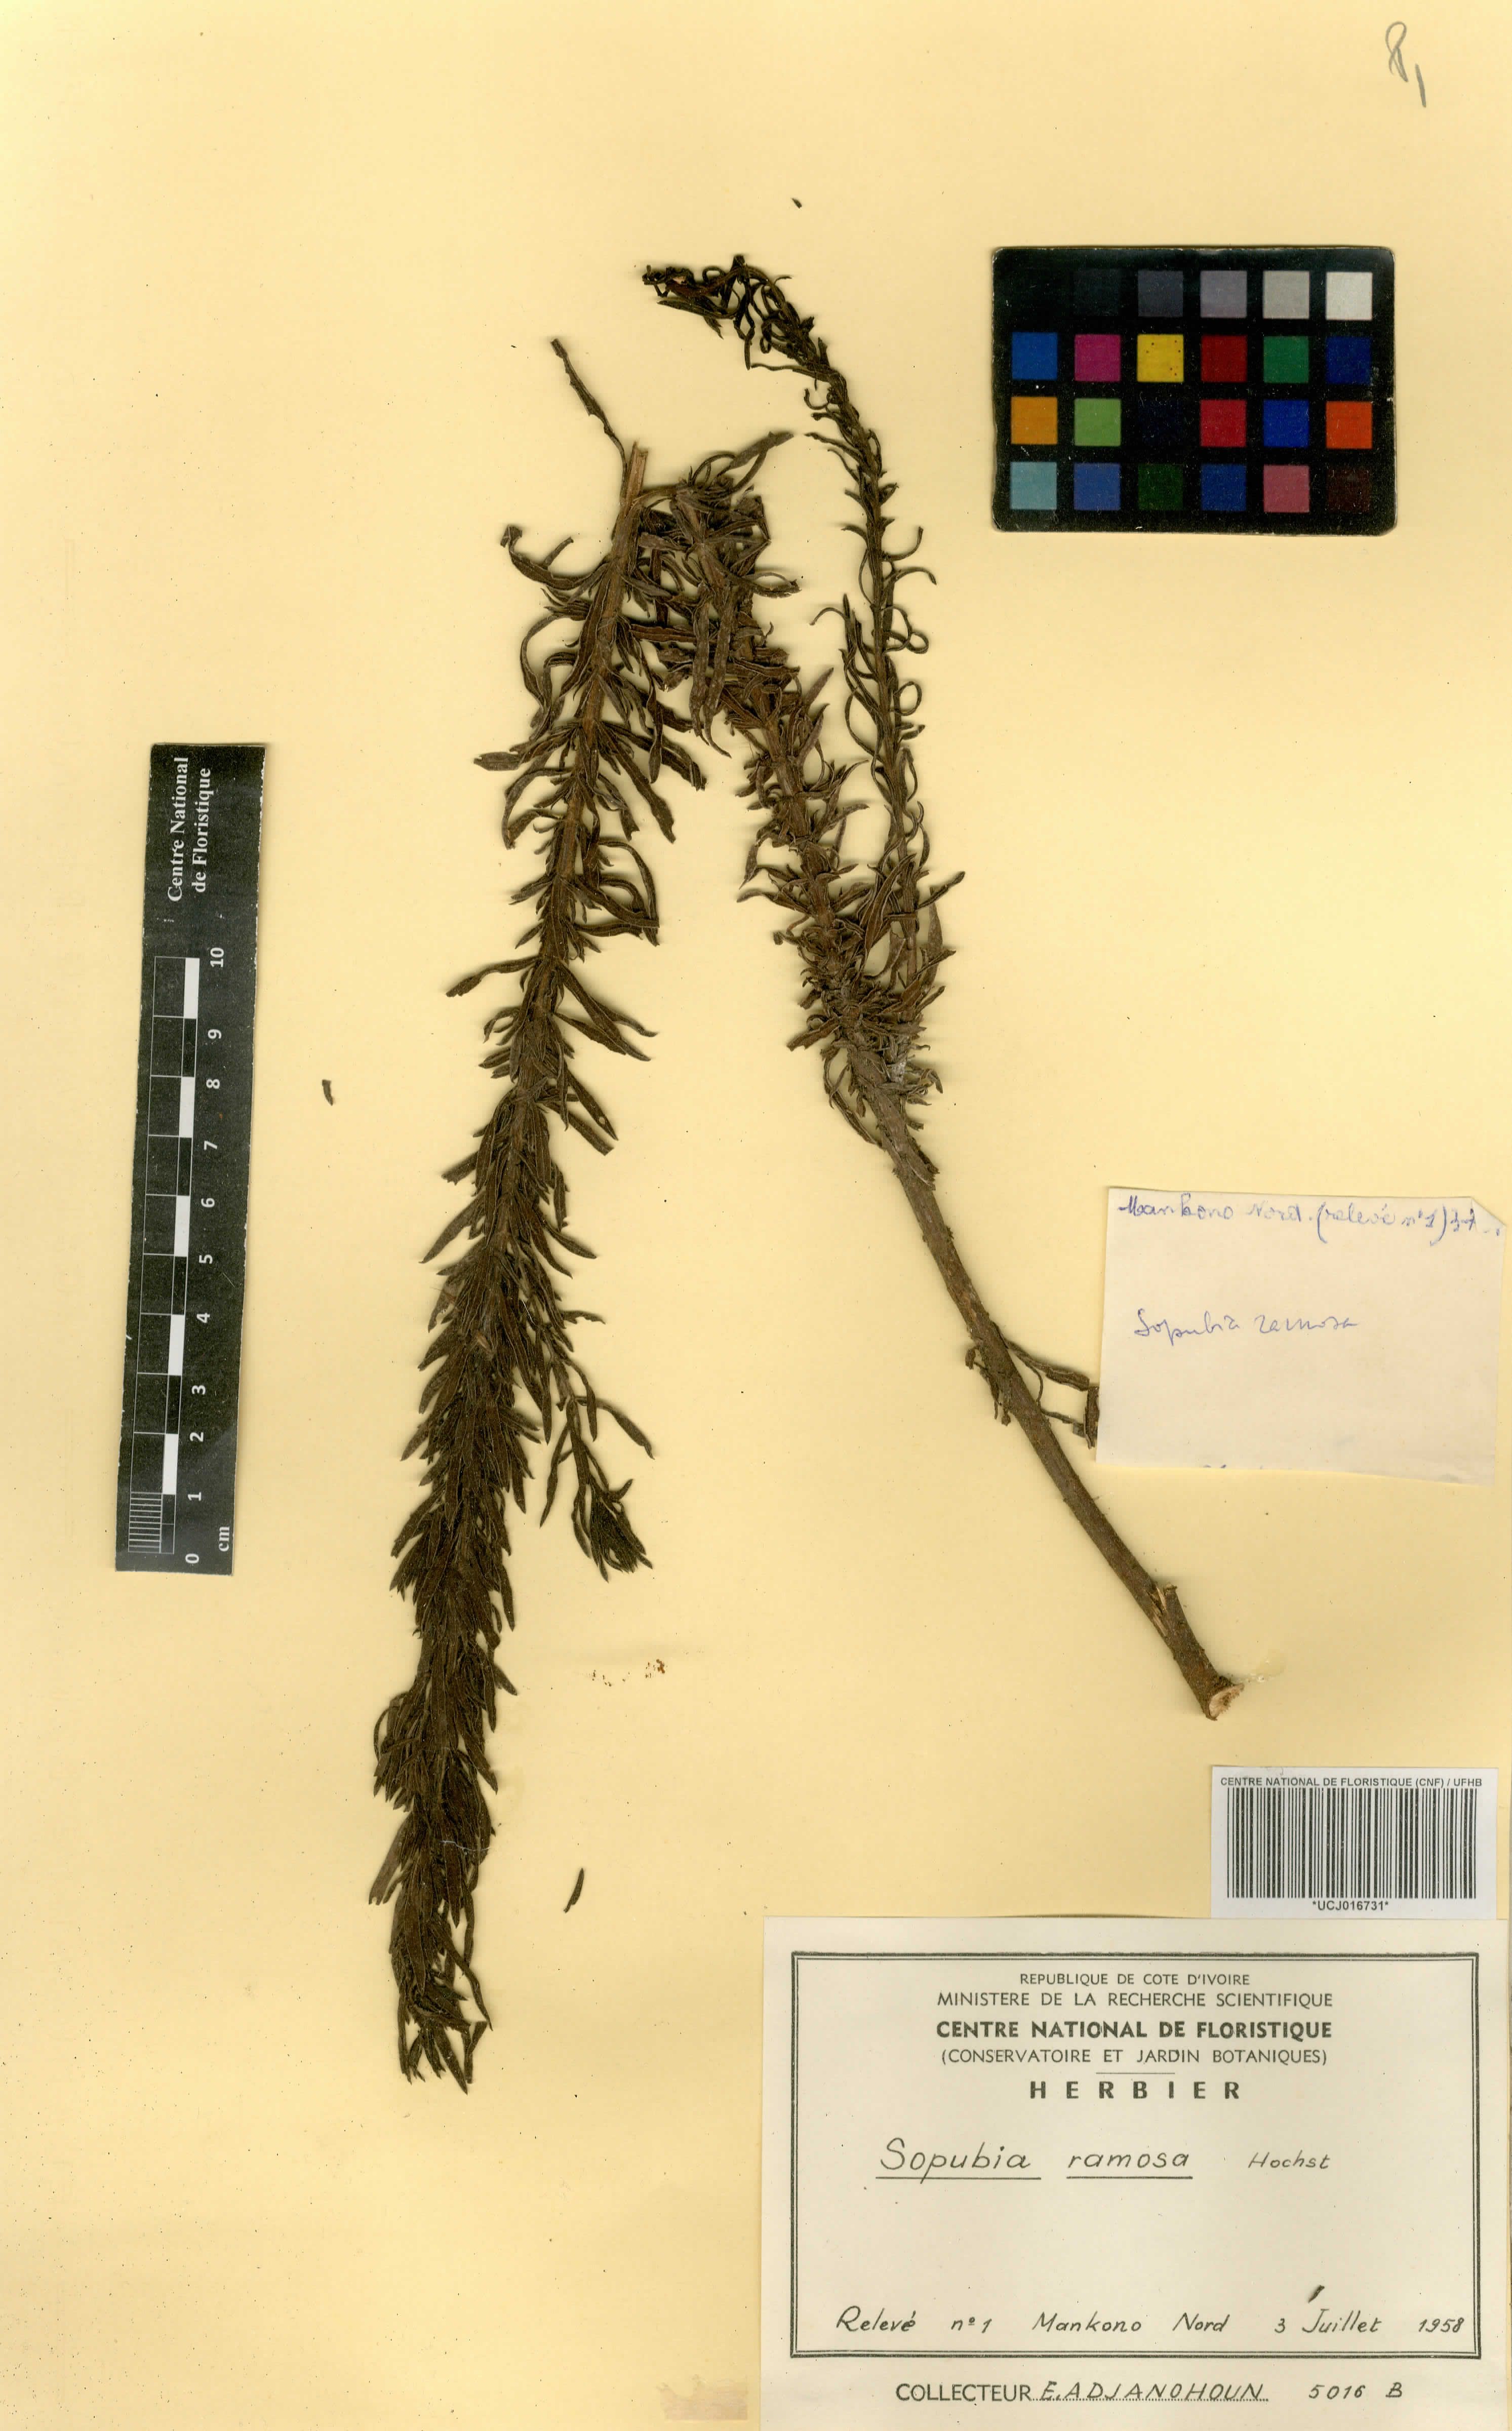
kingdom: Plantae
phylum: Tracheophyta
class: Magnoliopsida
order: Lamiales
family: Orobanchaceae
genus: Sopubia
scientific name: Sopubia ramosa
